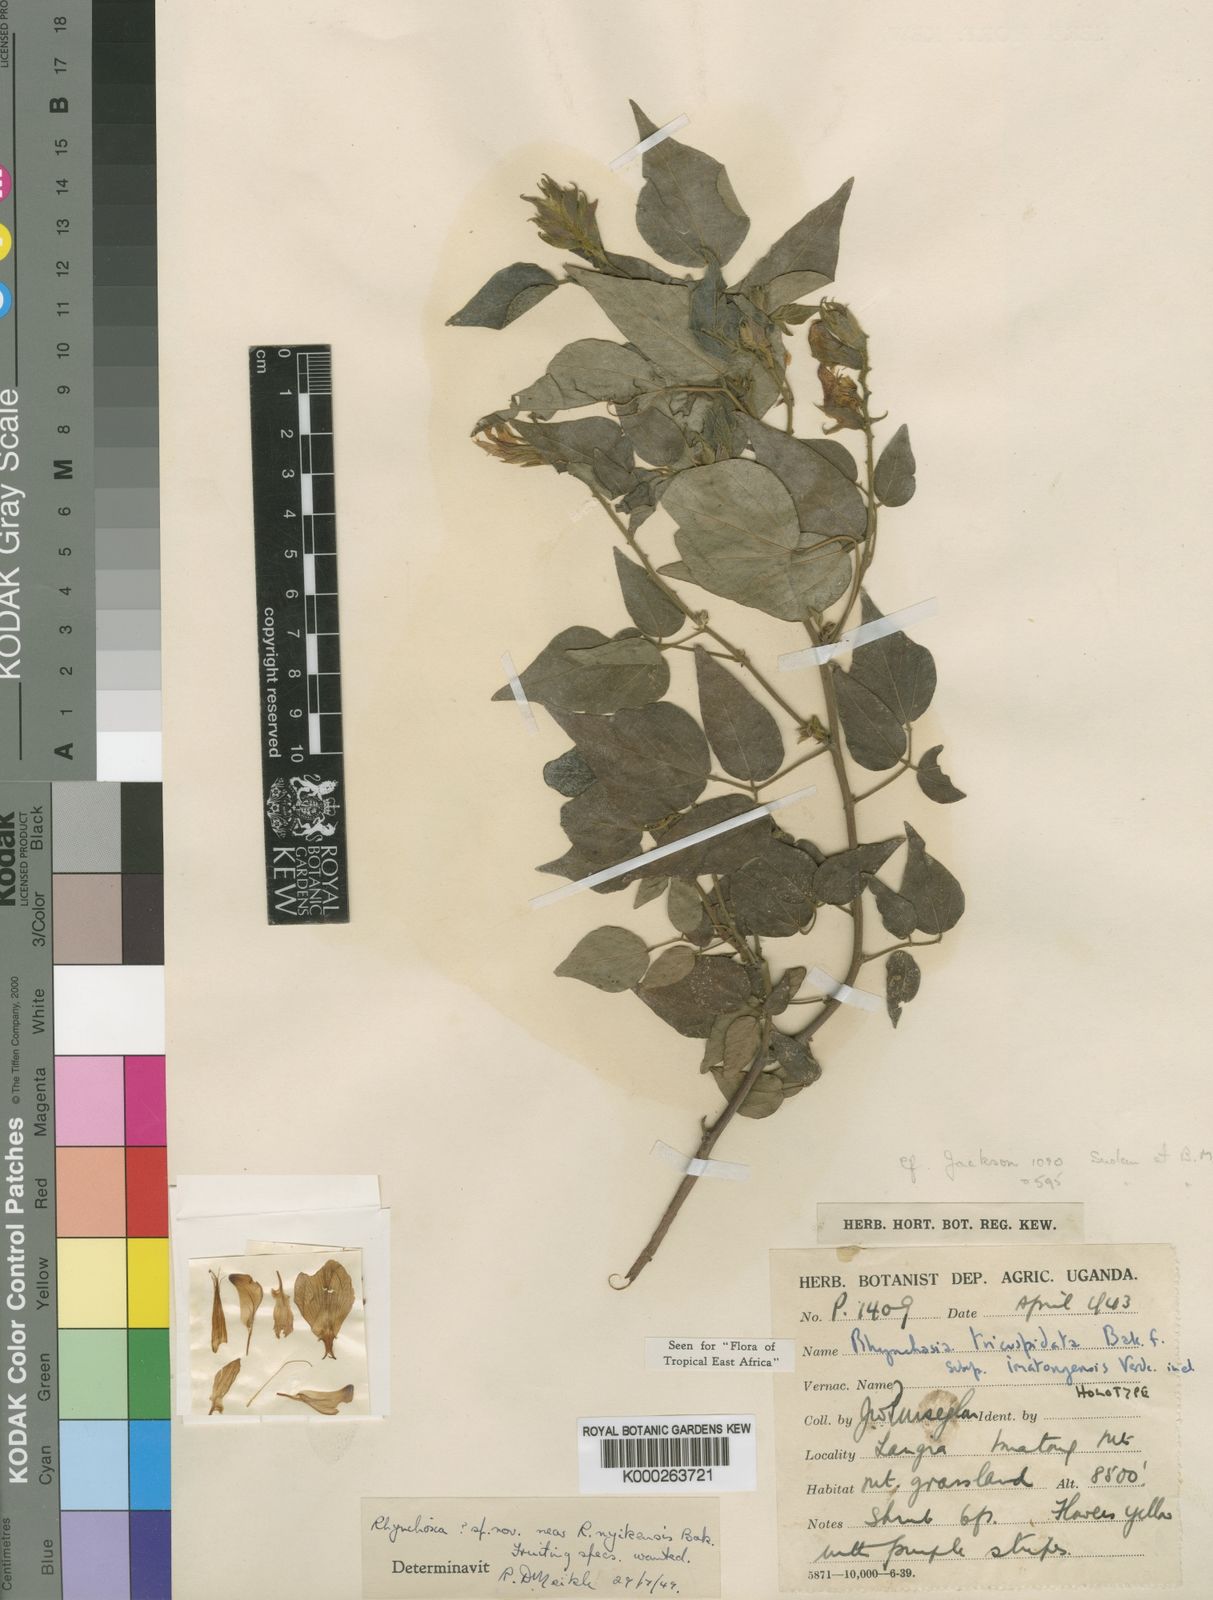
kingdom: Plantae
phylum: Tracheophyta
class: Magnoliopsida
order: Fabales
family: Fabaceae
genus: Rhynchosia
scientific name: Rhynchosia tricuspidata
